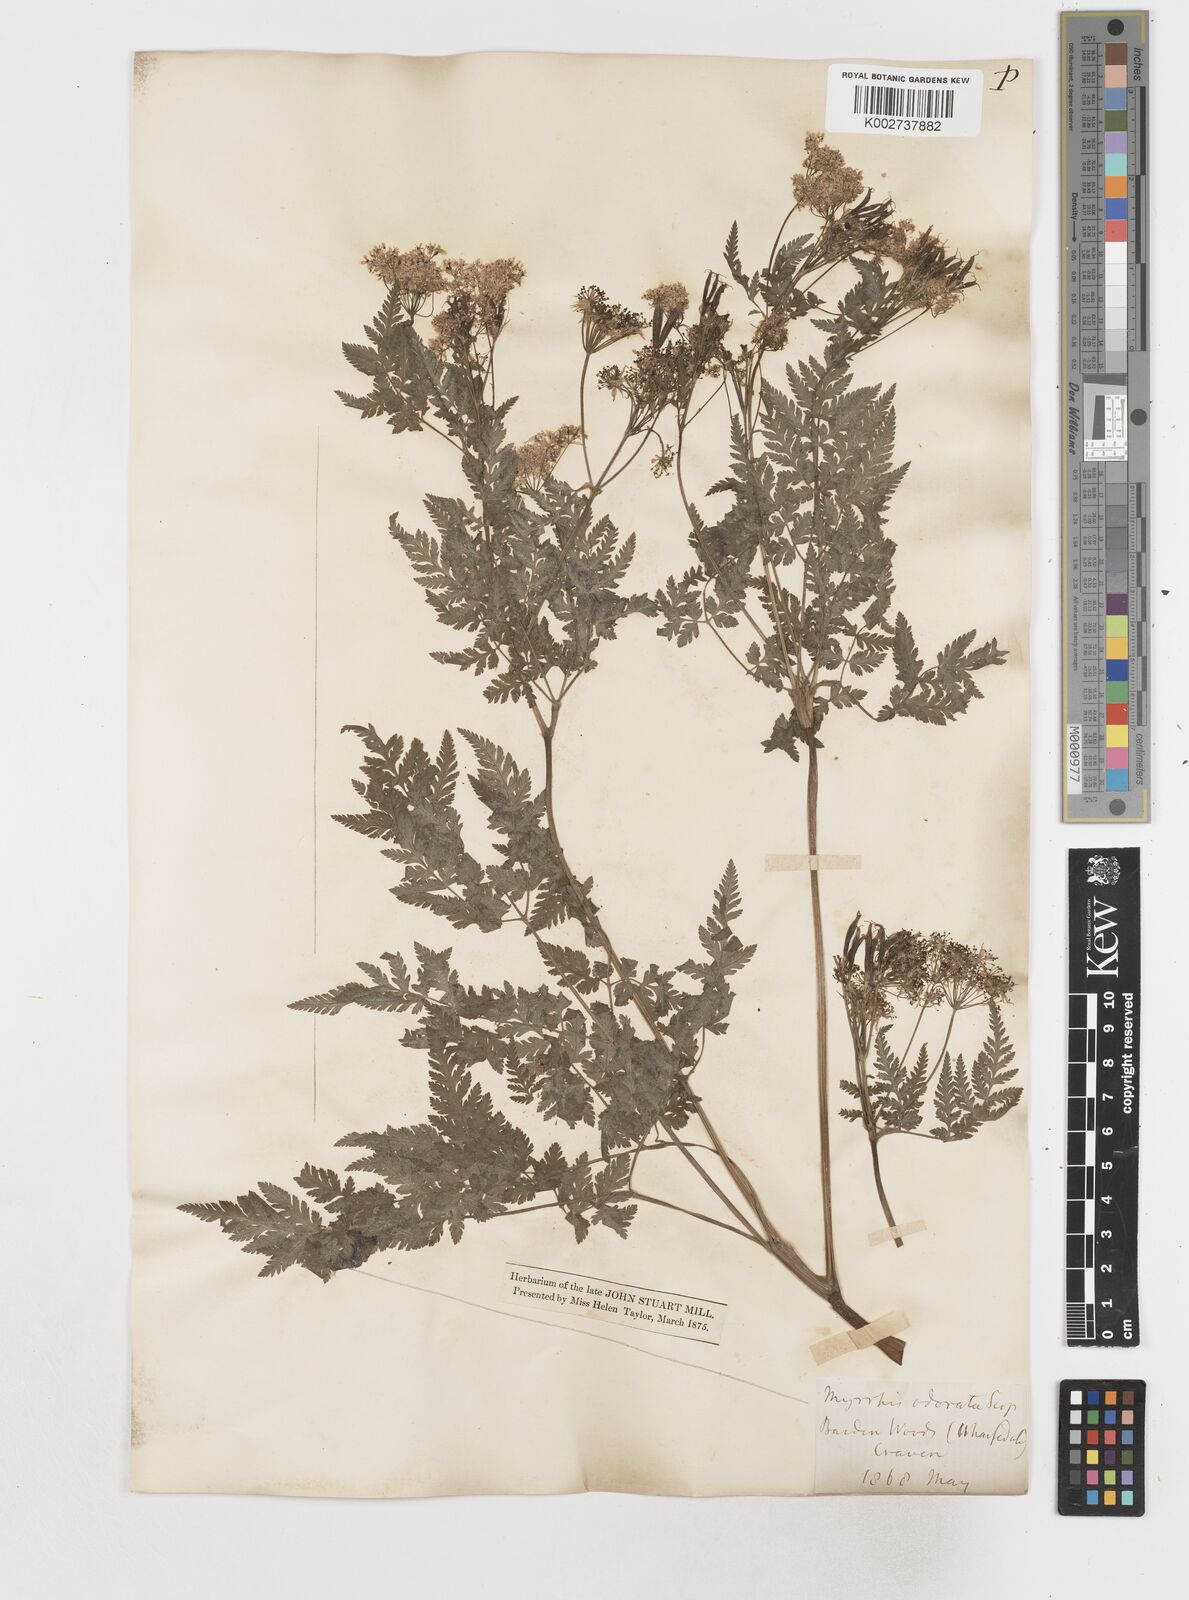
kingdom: Plantae
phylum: Tracheophyta
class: Magnoliopsida
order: Apiales
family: Apiaceae
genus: Myrrhis
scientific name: Myrrhis odorata
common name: Sweet cicely
